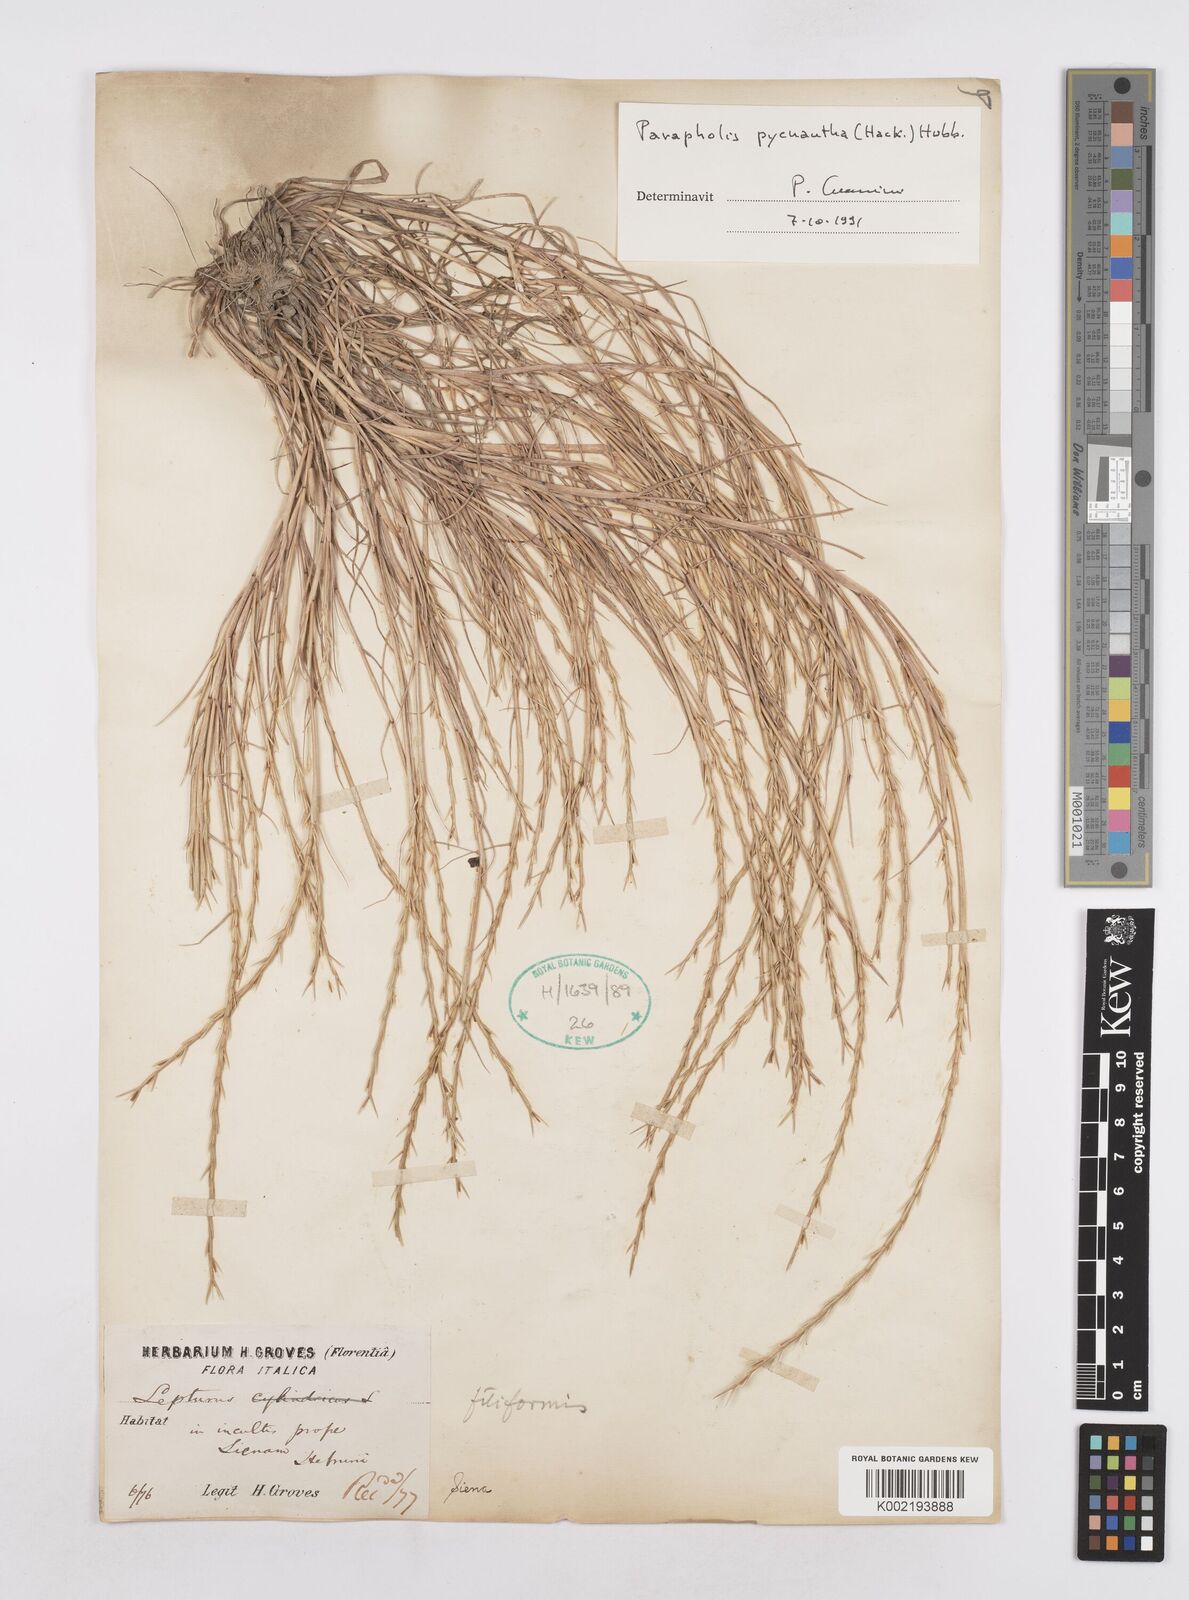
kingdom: Plantae
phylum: Tracheophyta
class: Liliopsida
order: Poales
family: Poaceae
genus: Parapholis
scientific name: Parapholis pycnantha
